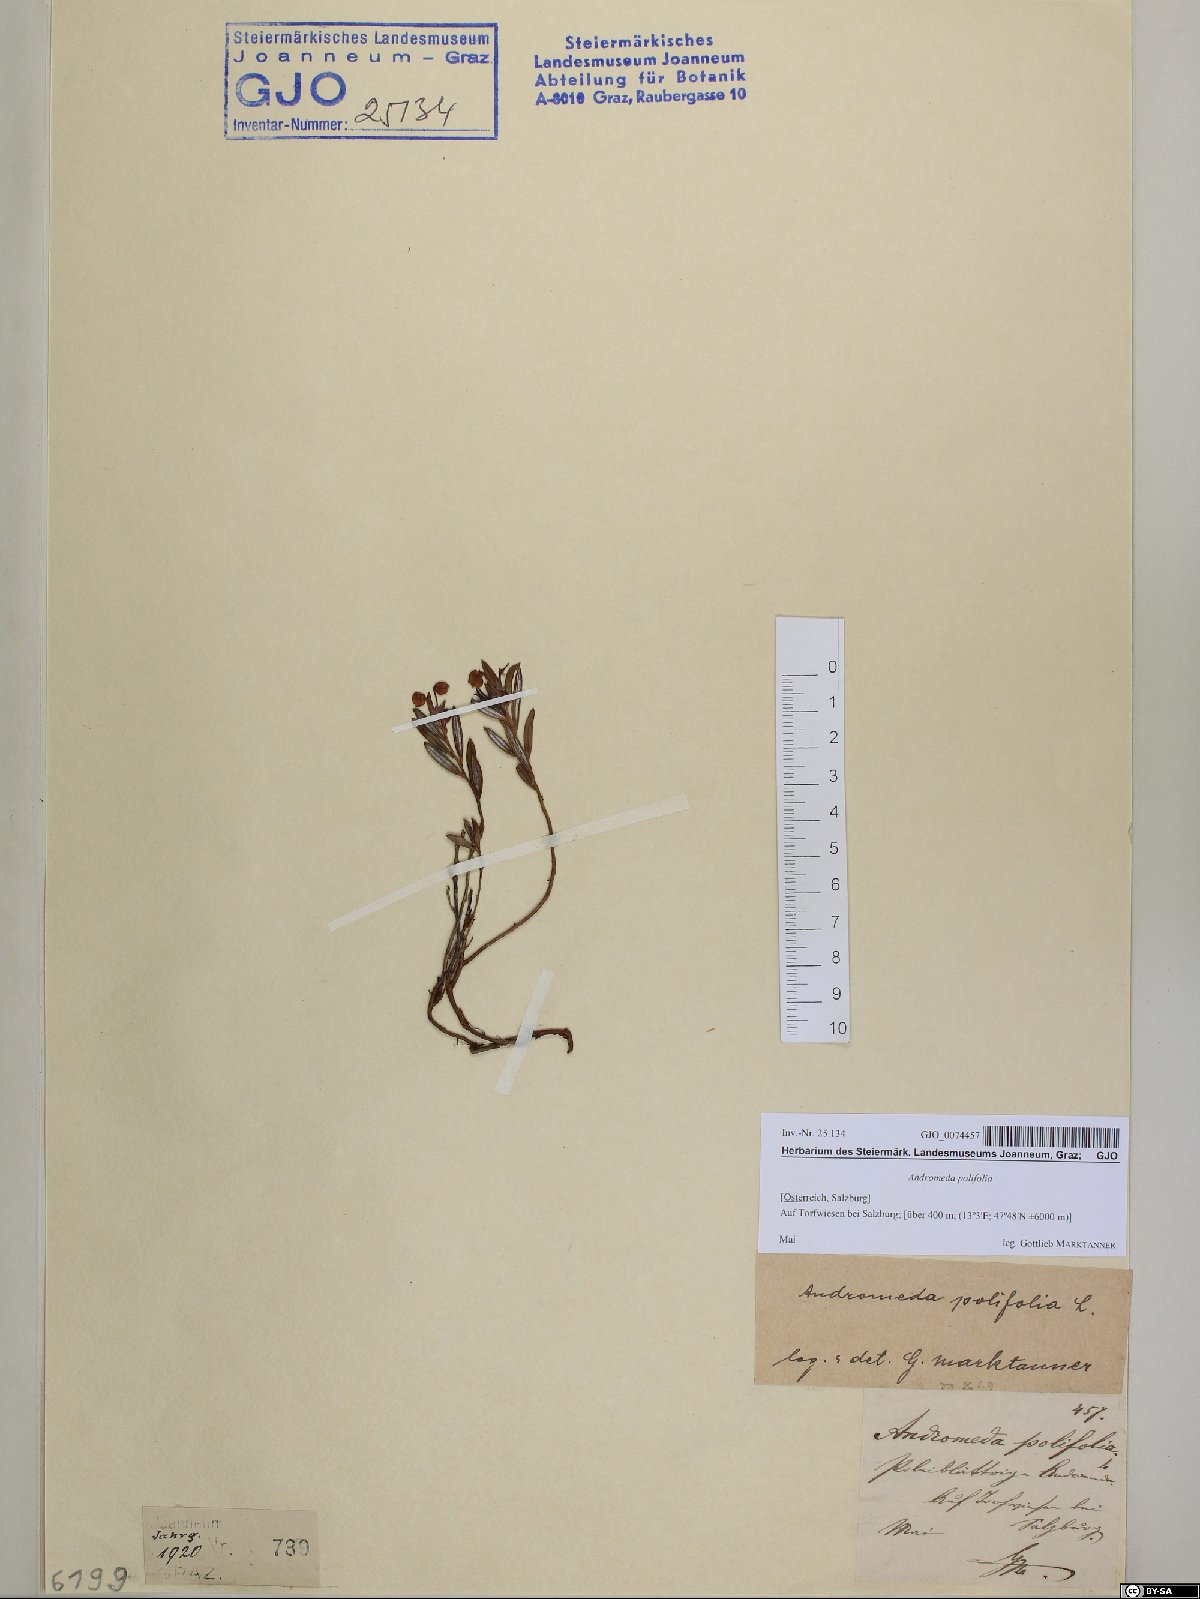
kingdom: Plantae
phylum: Tracheophyta
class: Magnoliopsida
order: Ericales
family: Ericaceae
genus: Andromeda
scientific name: Andromeda polifolia
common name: Bog-rosemary
